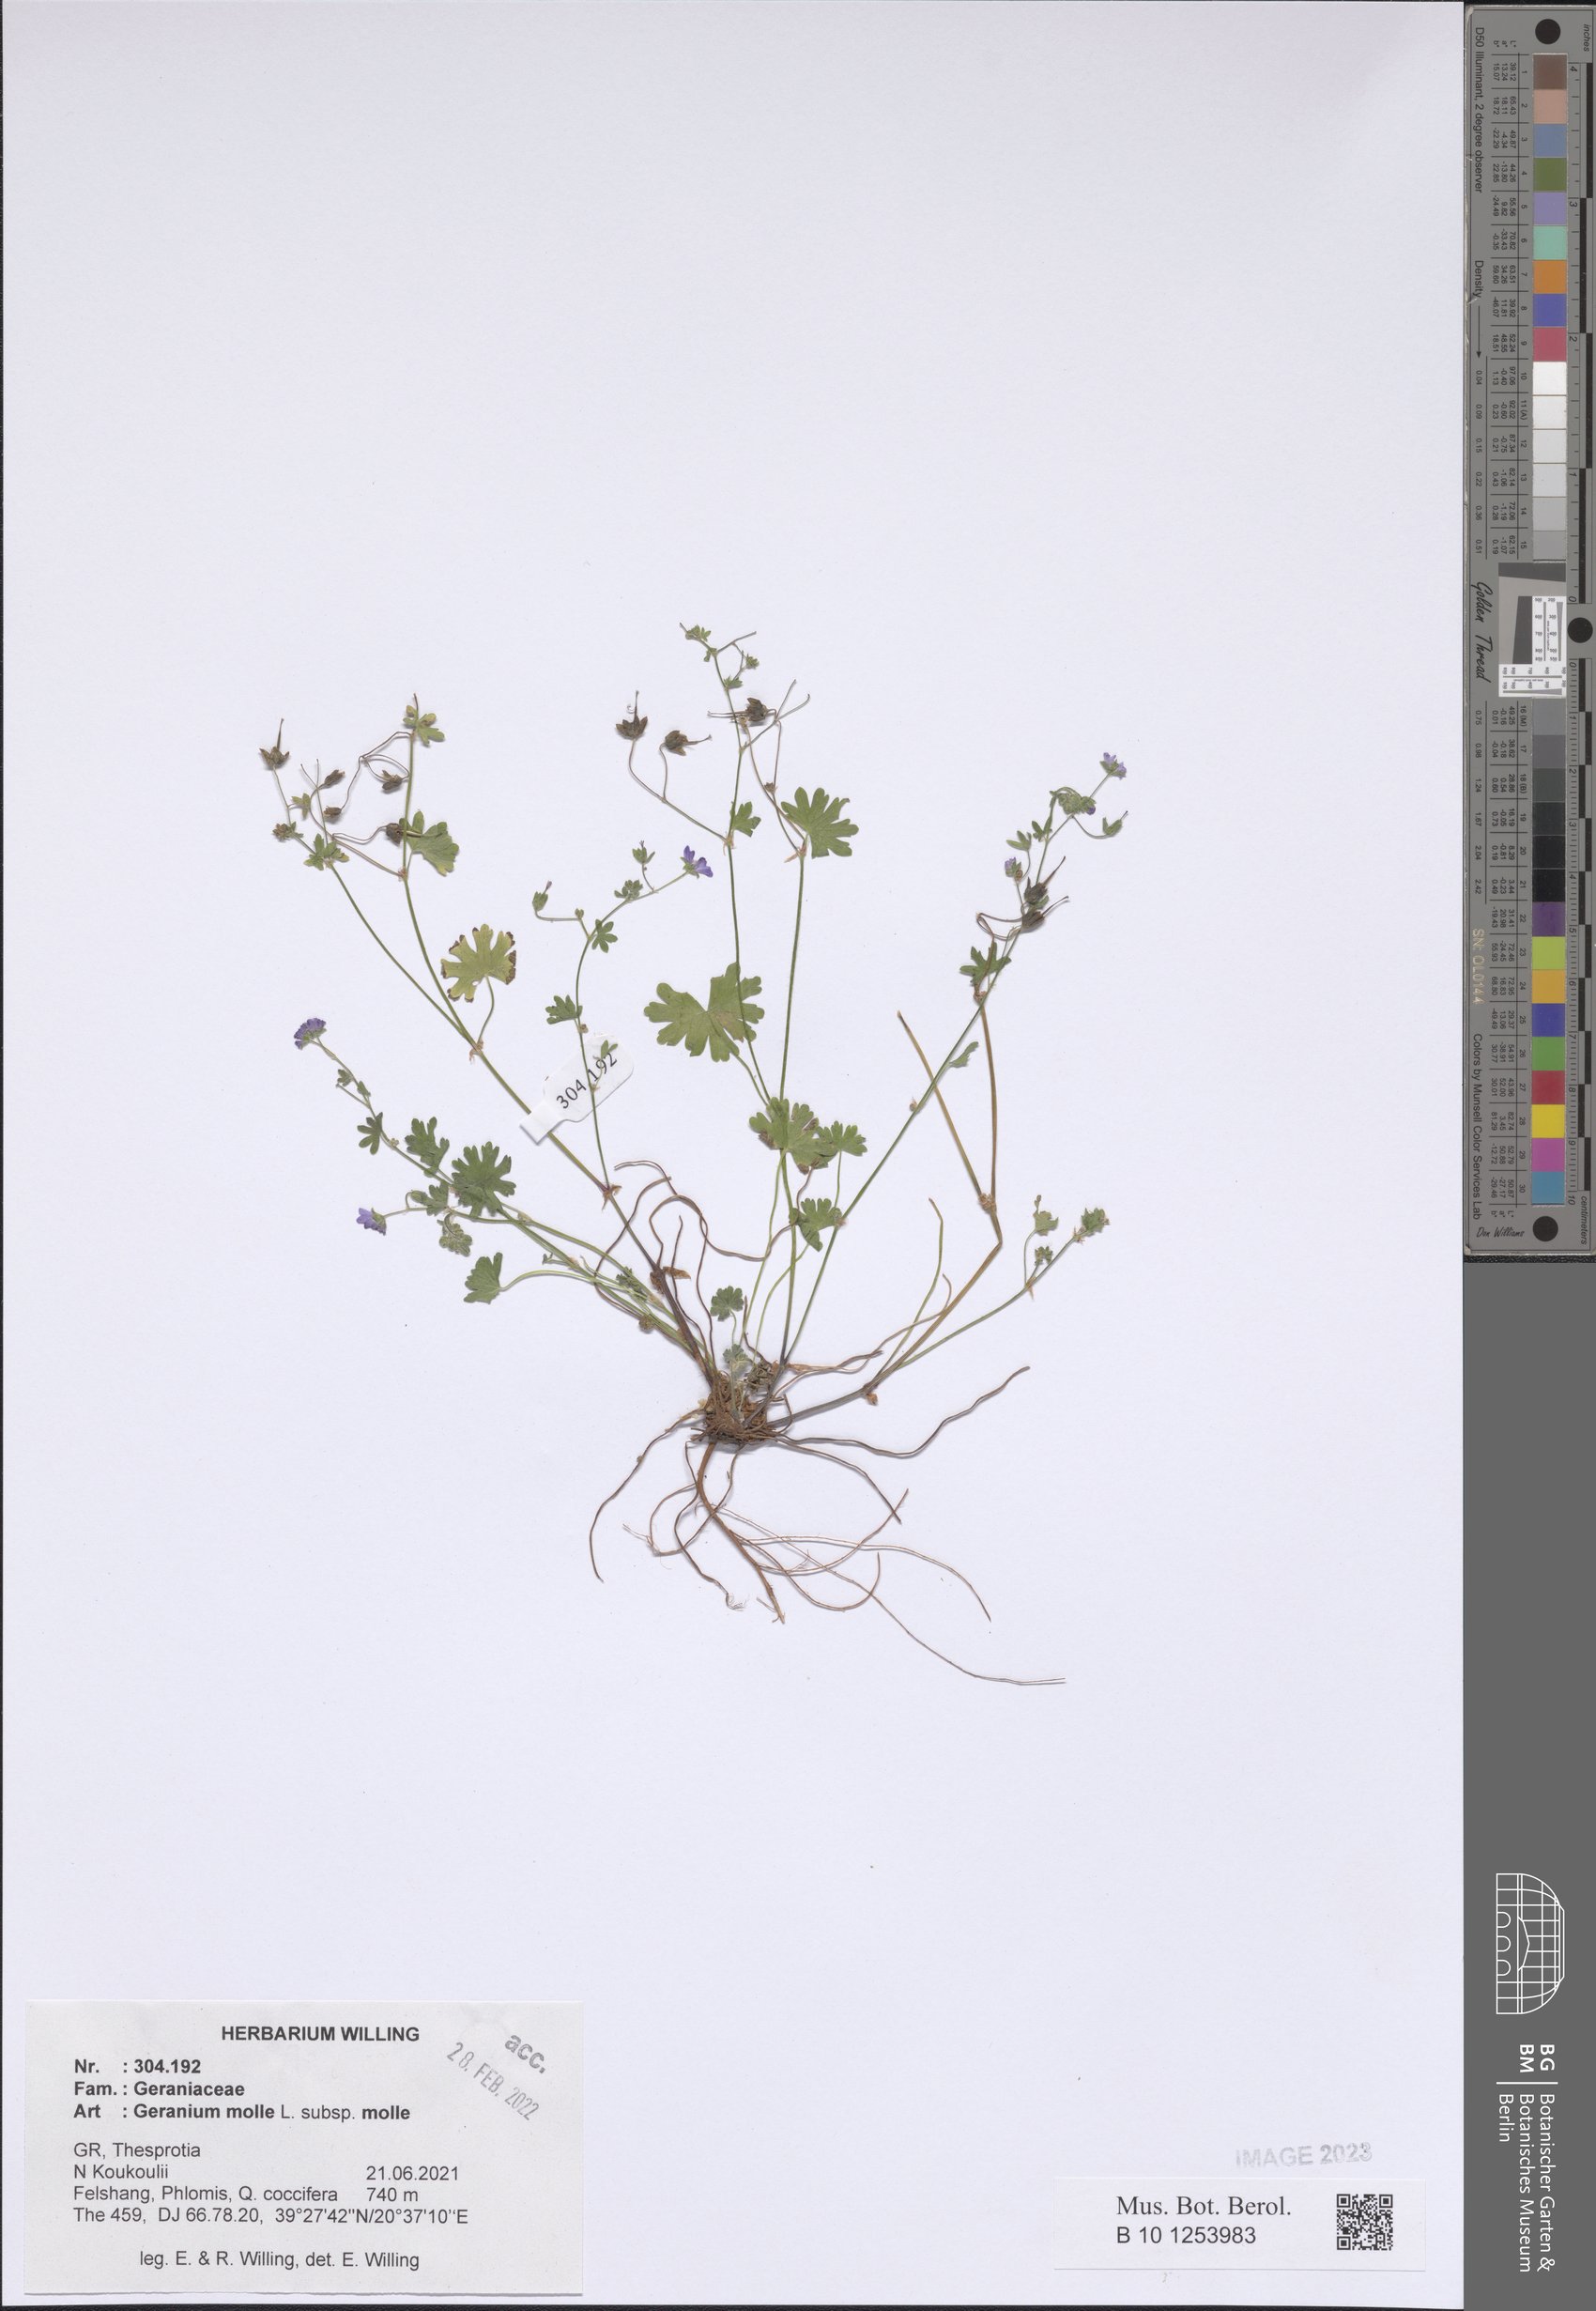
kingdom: Plantae
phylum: Tracheophyta
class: Magnoliopsida
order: Geraniales
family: Geraniaceae
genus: Geranium
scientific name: Geranium molle
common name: Dove's-foot crane's-bill
